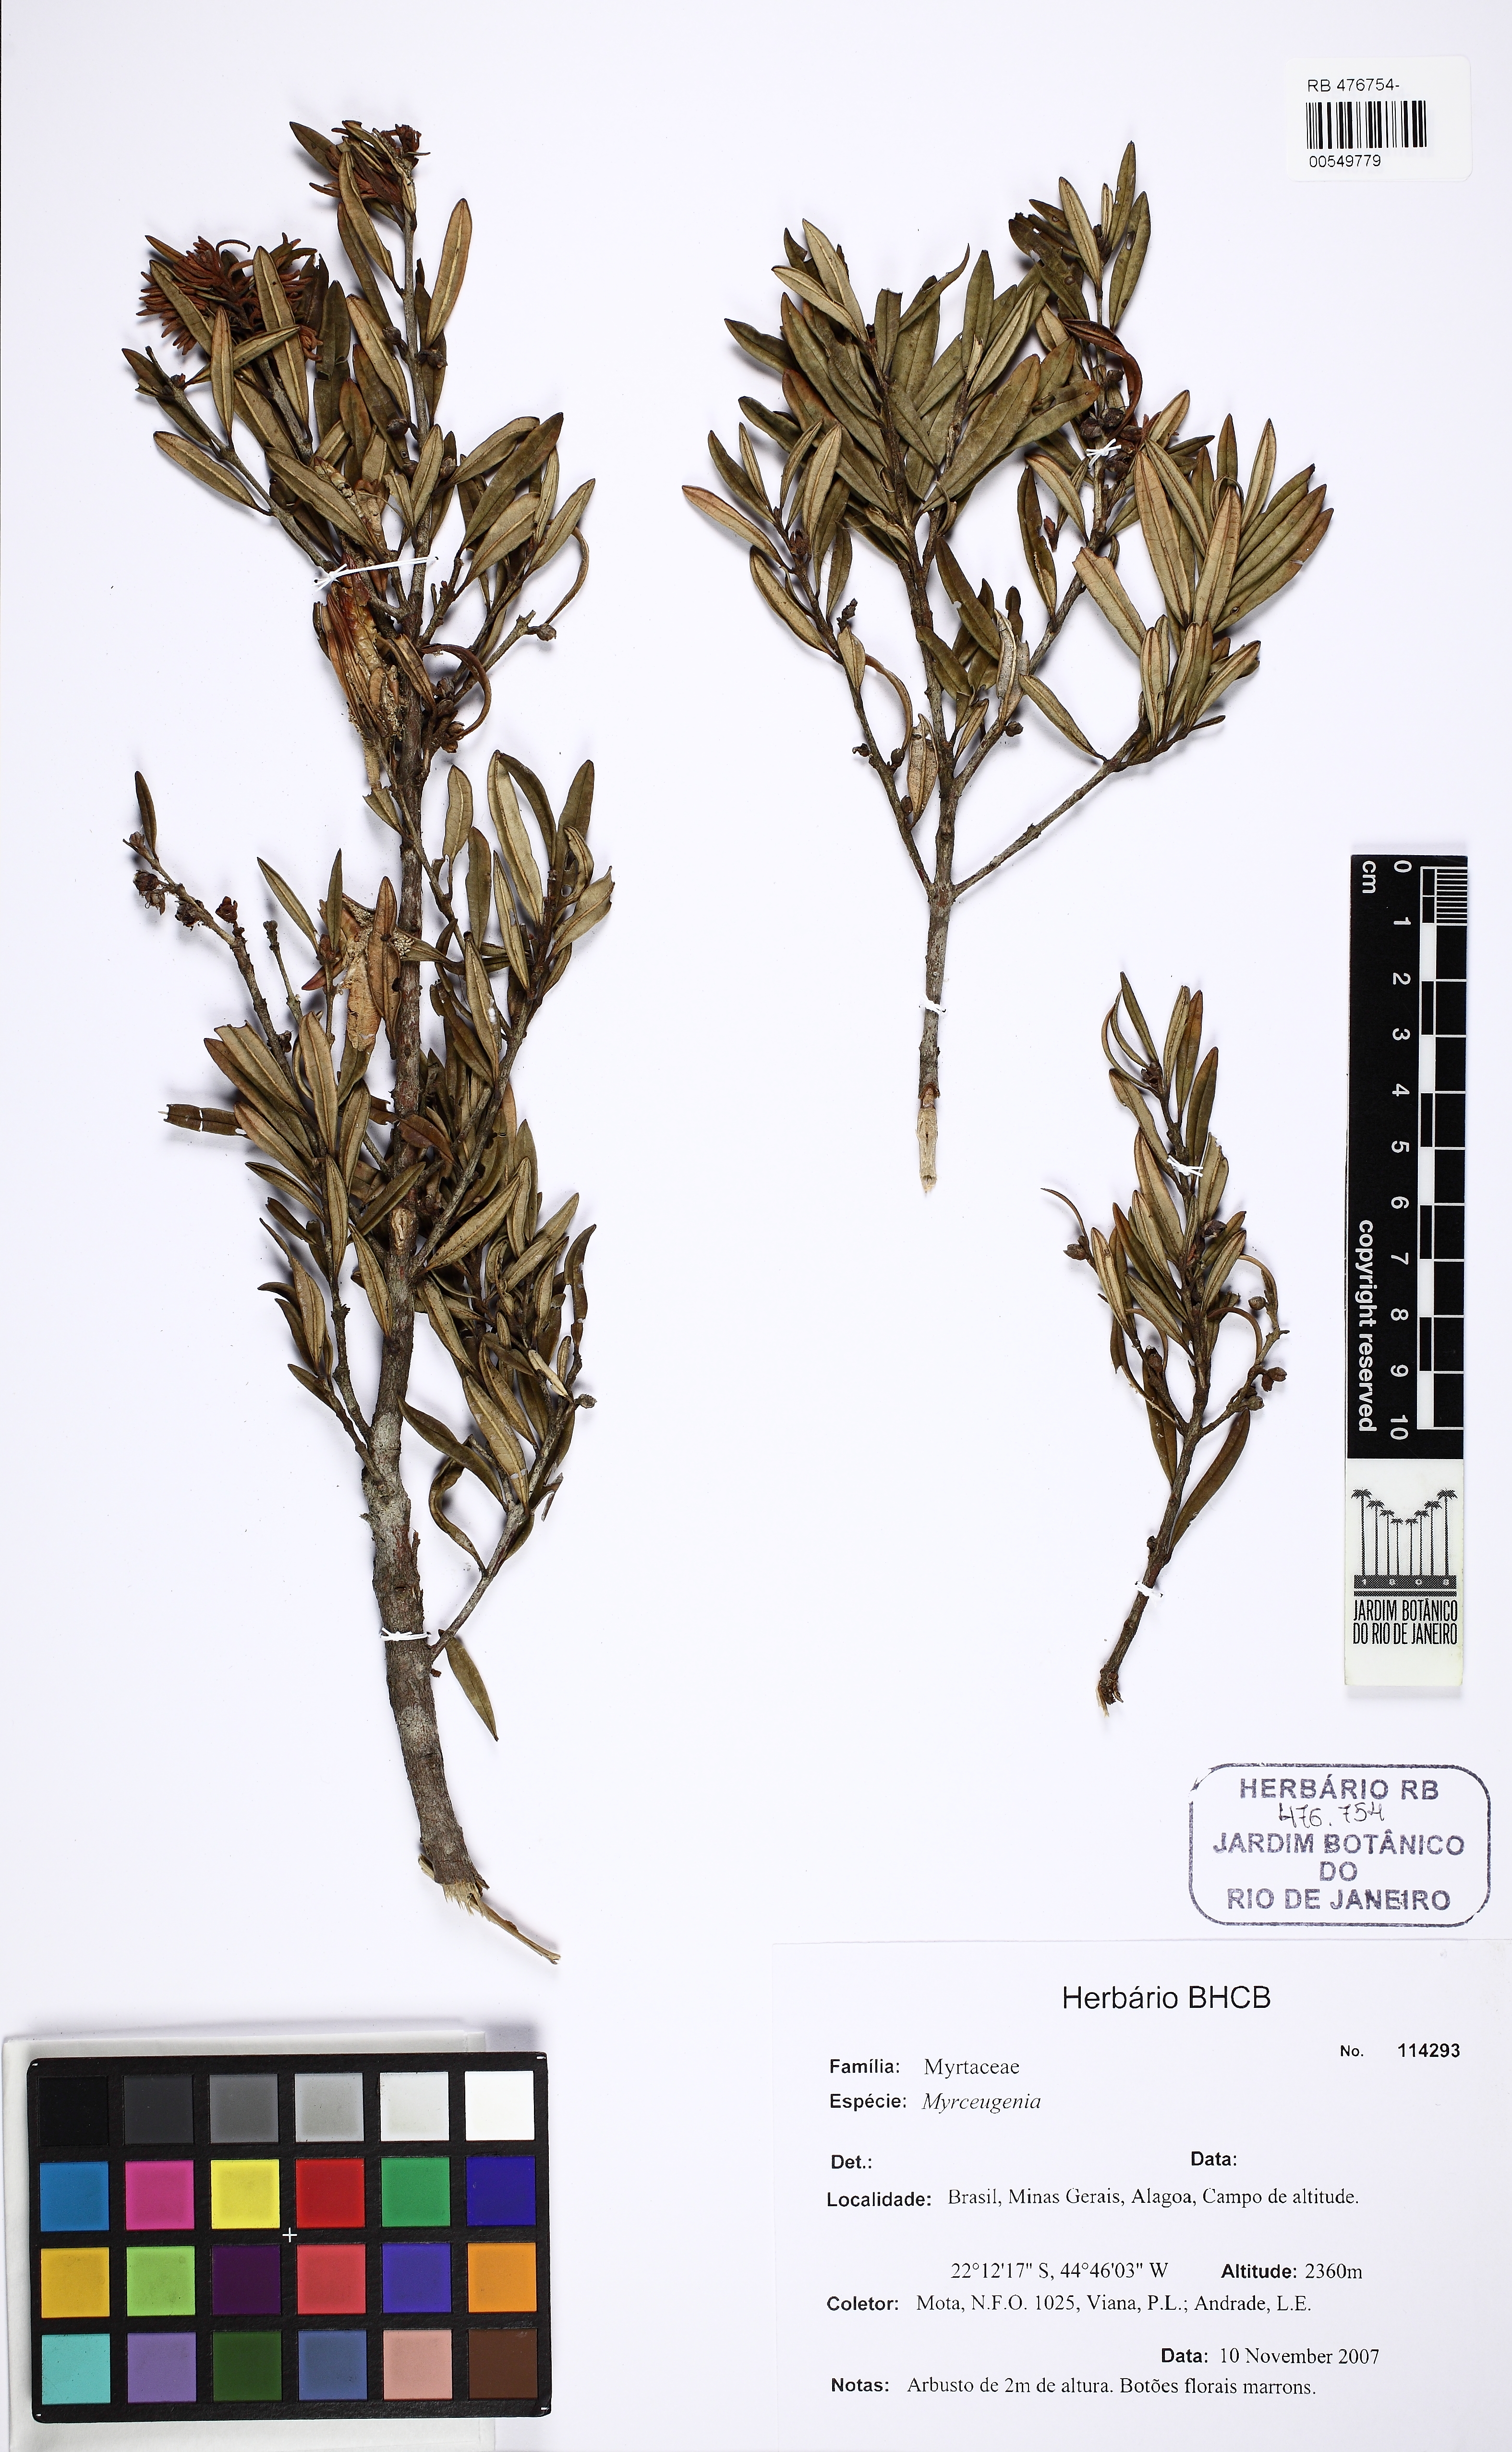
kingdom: Plantae
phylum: Tracheophyta
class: Magnoliopsida
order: Myrtales
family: Myrtaceae
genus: Myrceugenia
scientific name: Myrceugenia bracteosa
